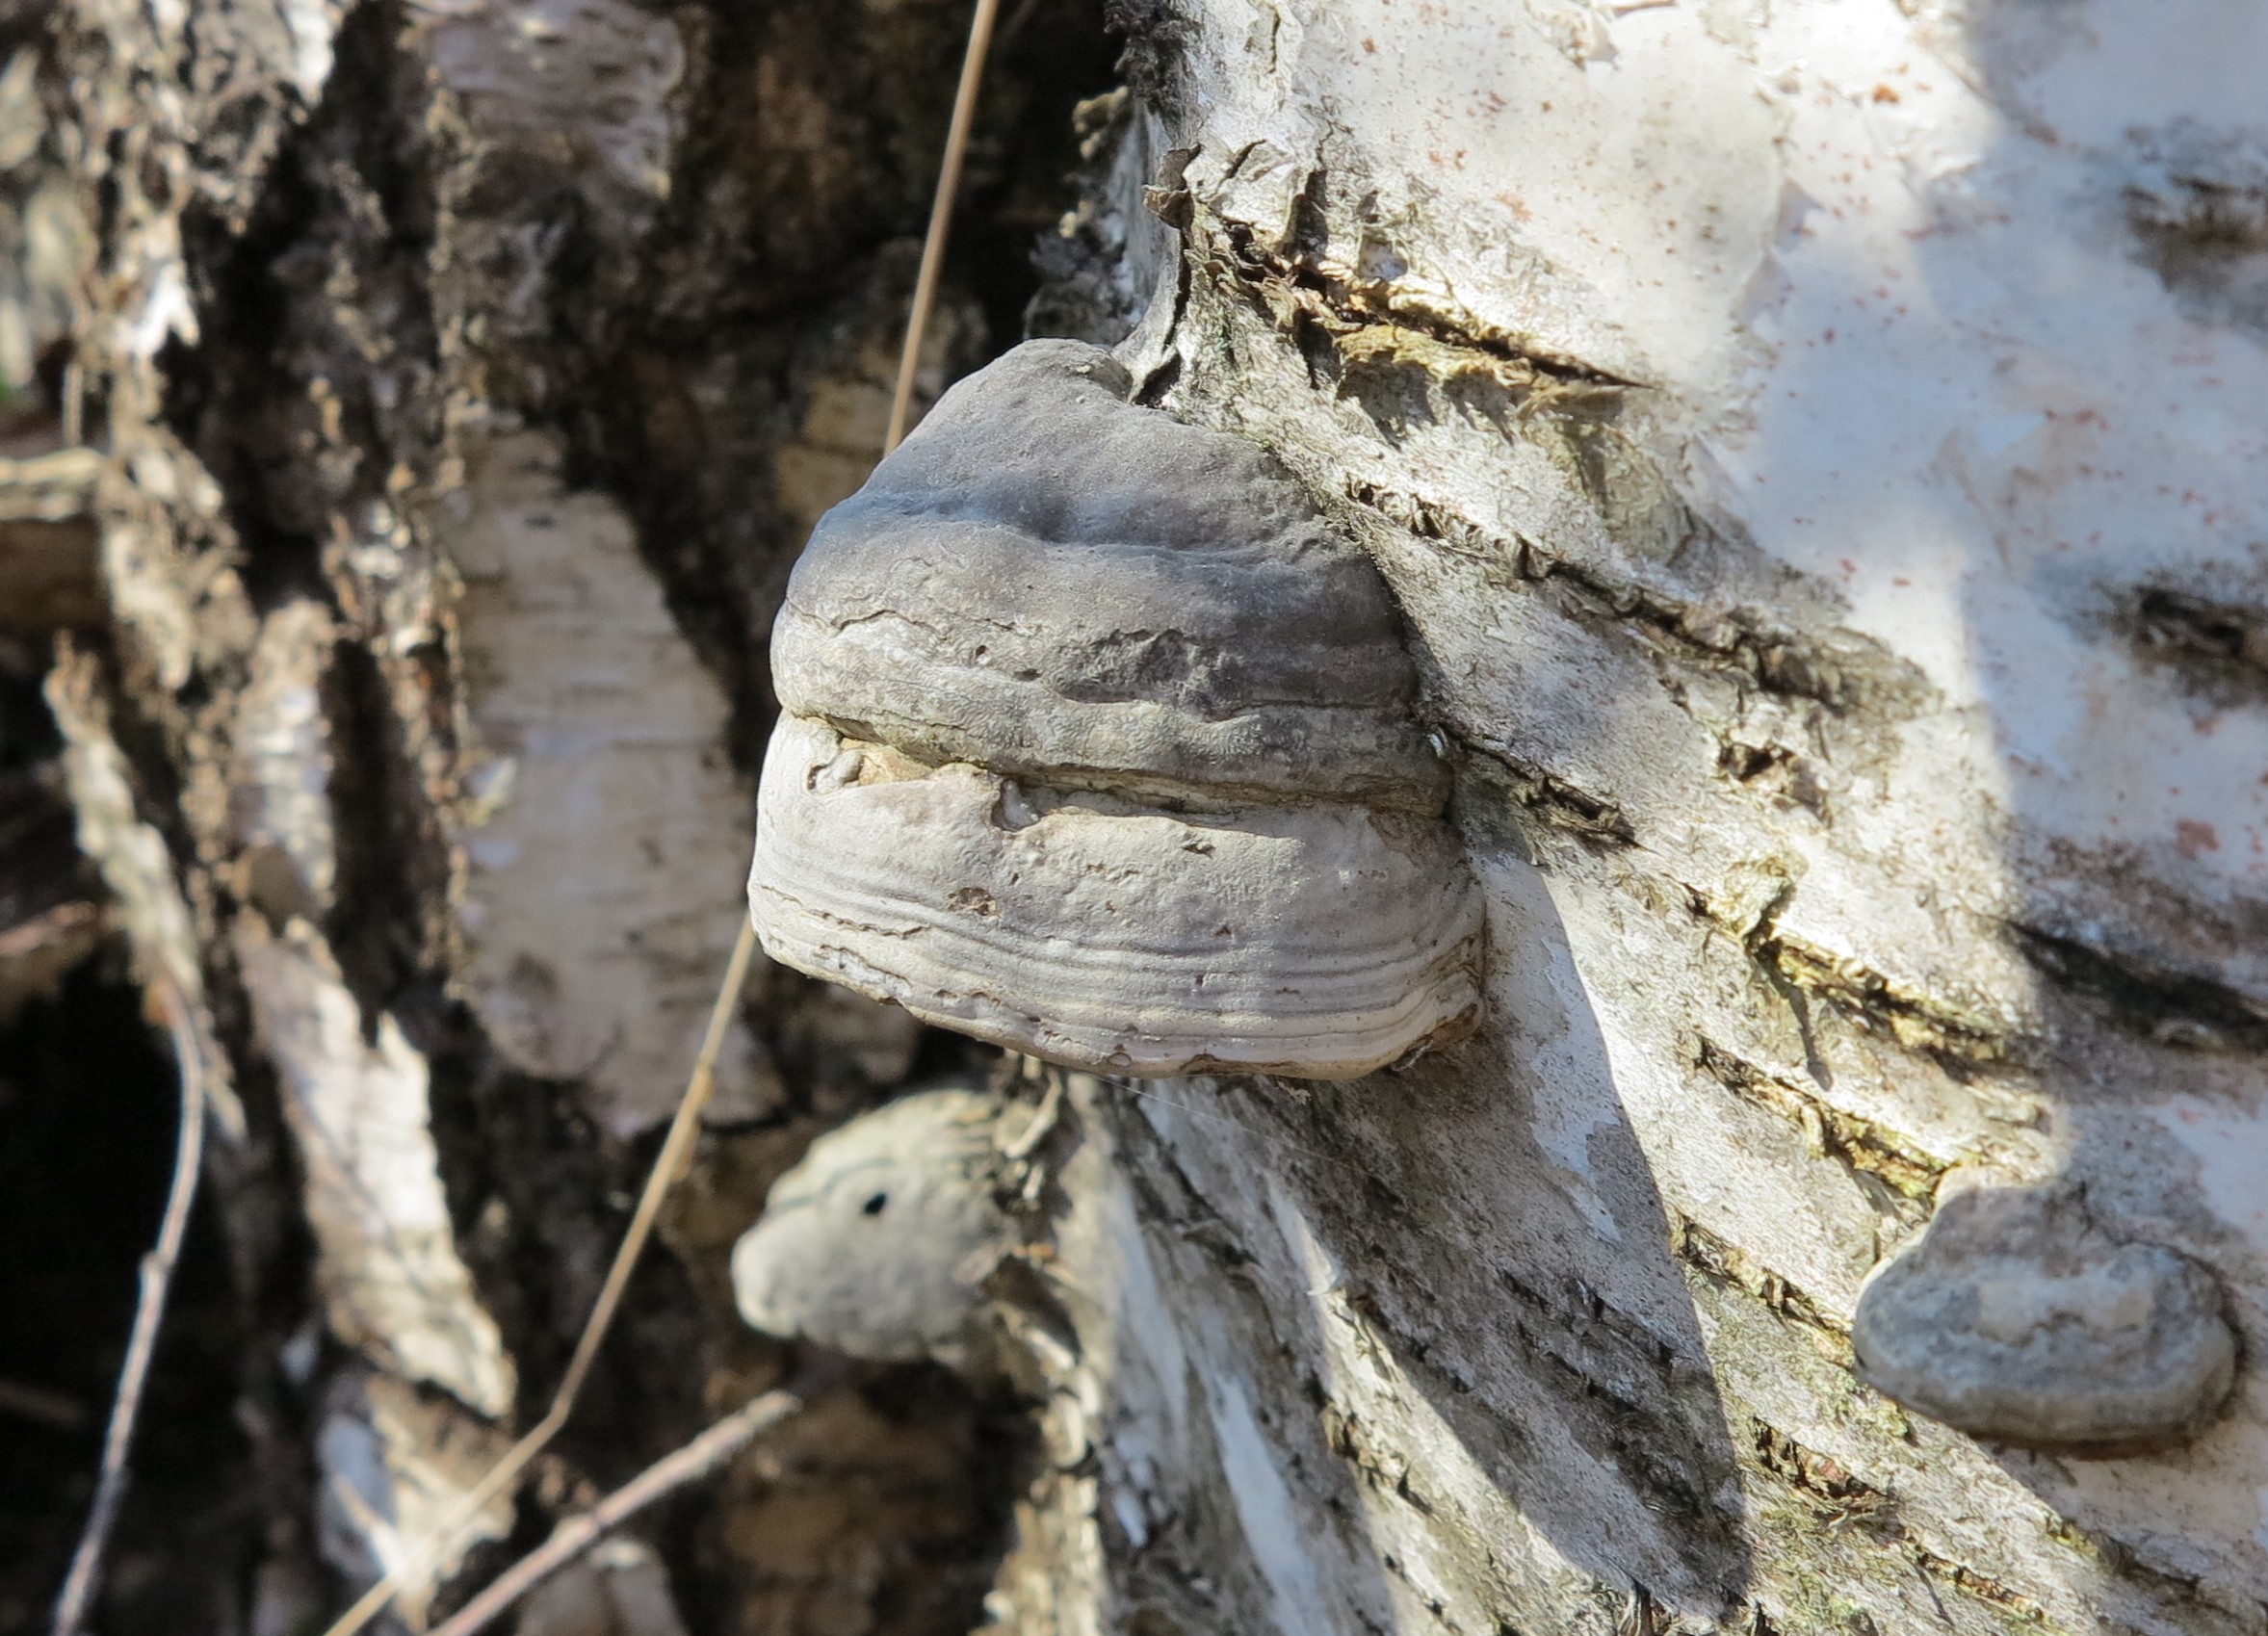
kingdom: Fungi
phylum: Basidiomycota
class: Agaricomycetes
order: Polyporales
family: Polyporaceae
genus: Fomes
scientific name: Fomes fomentarius
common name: Hoof fungus
